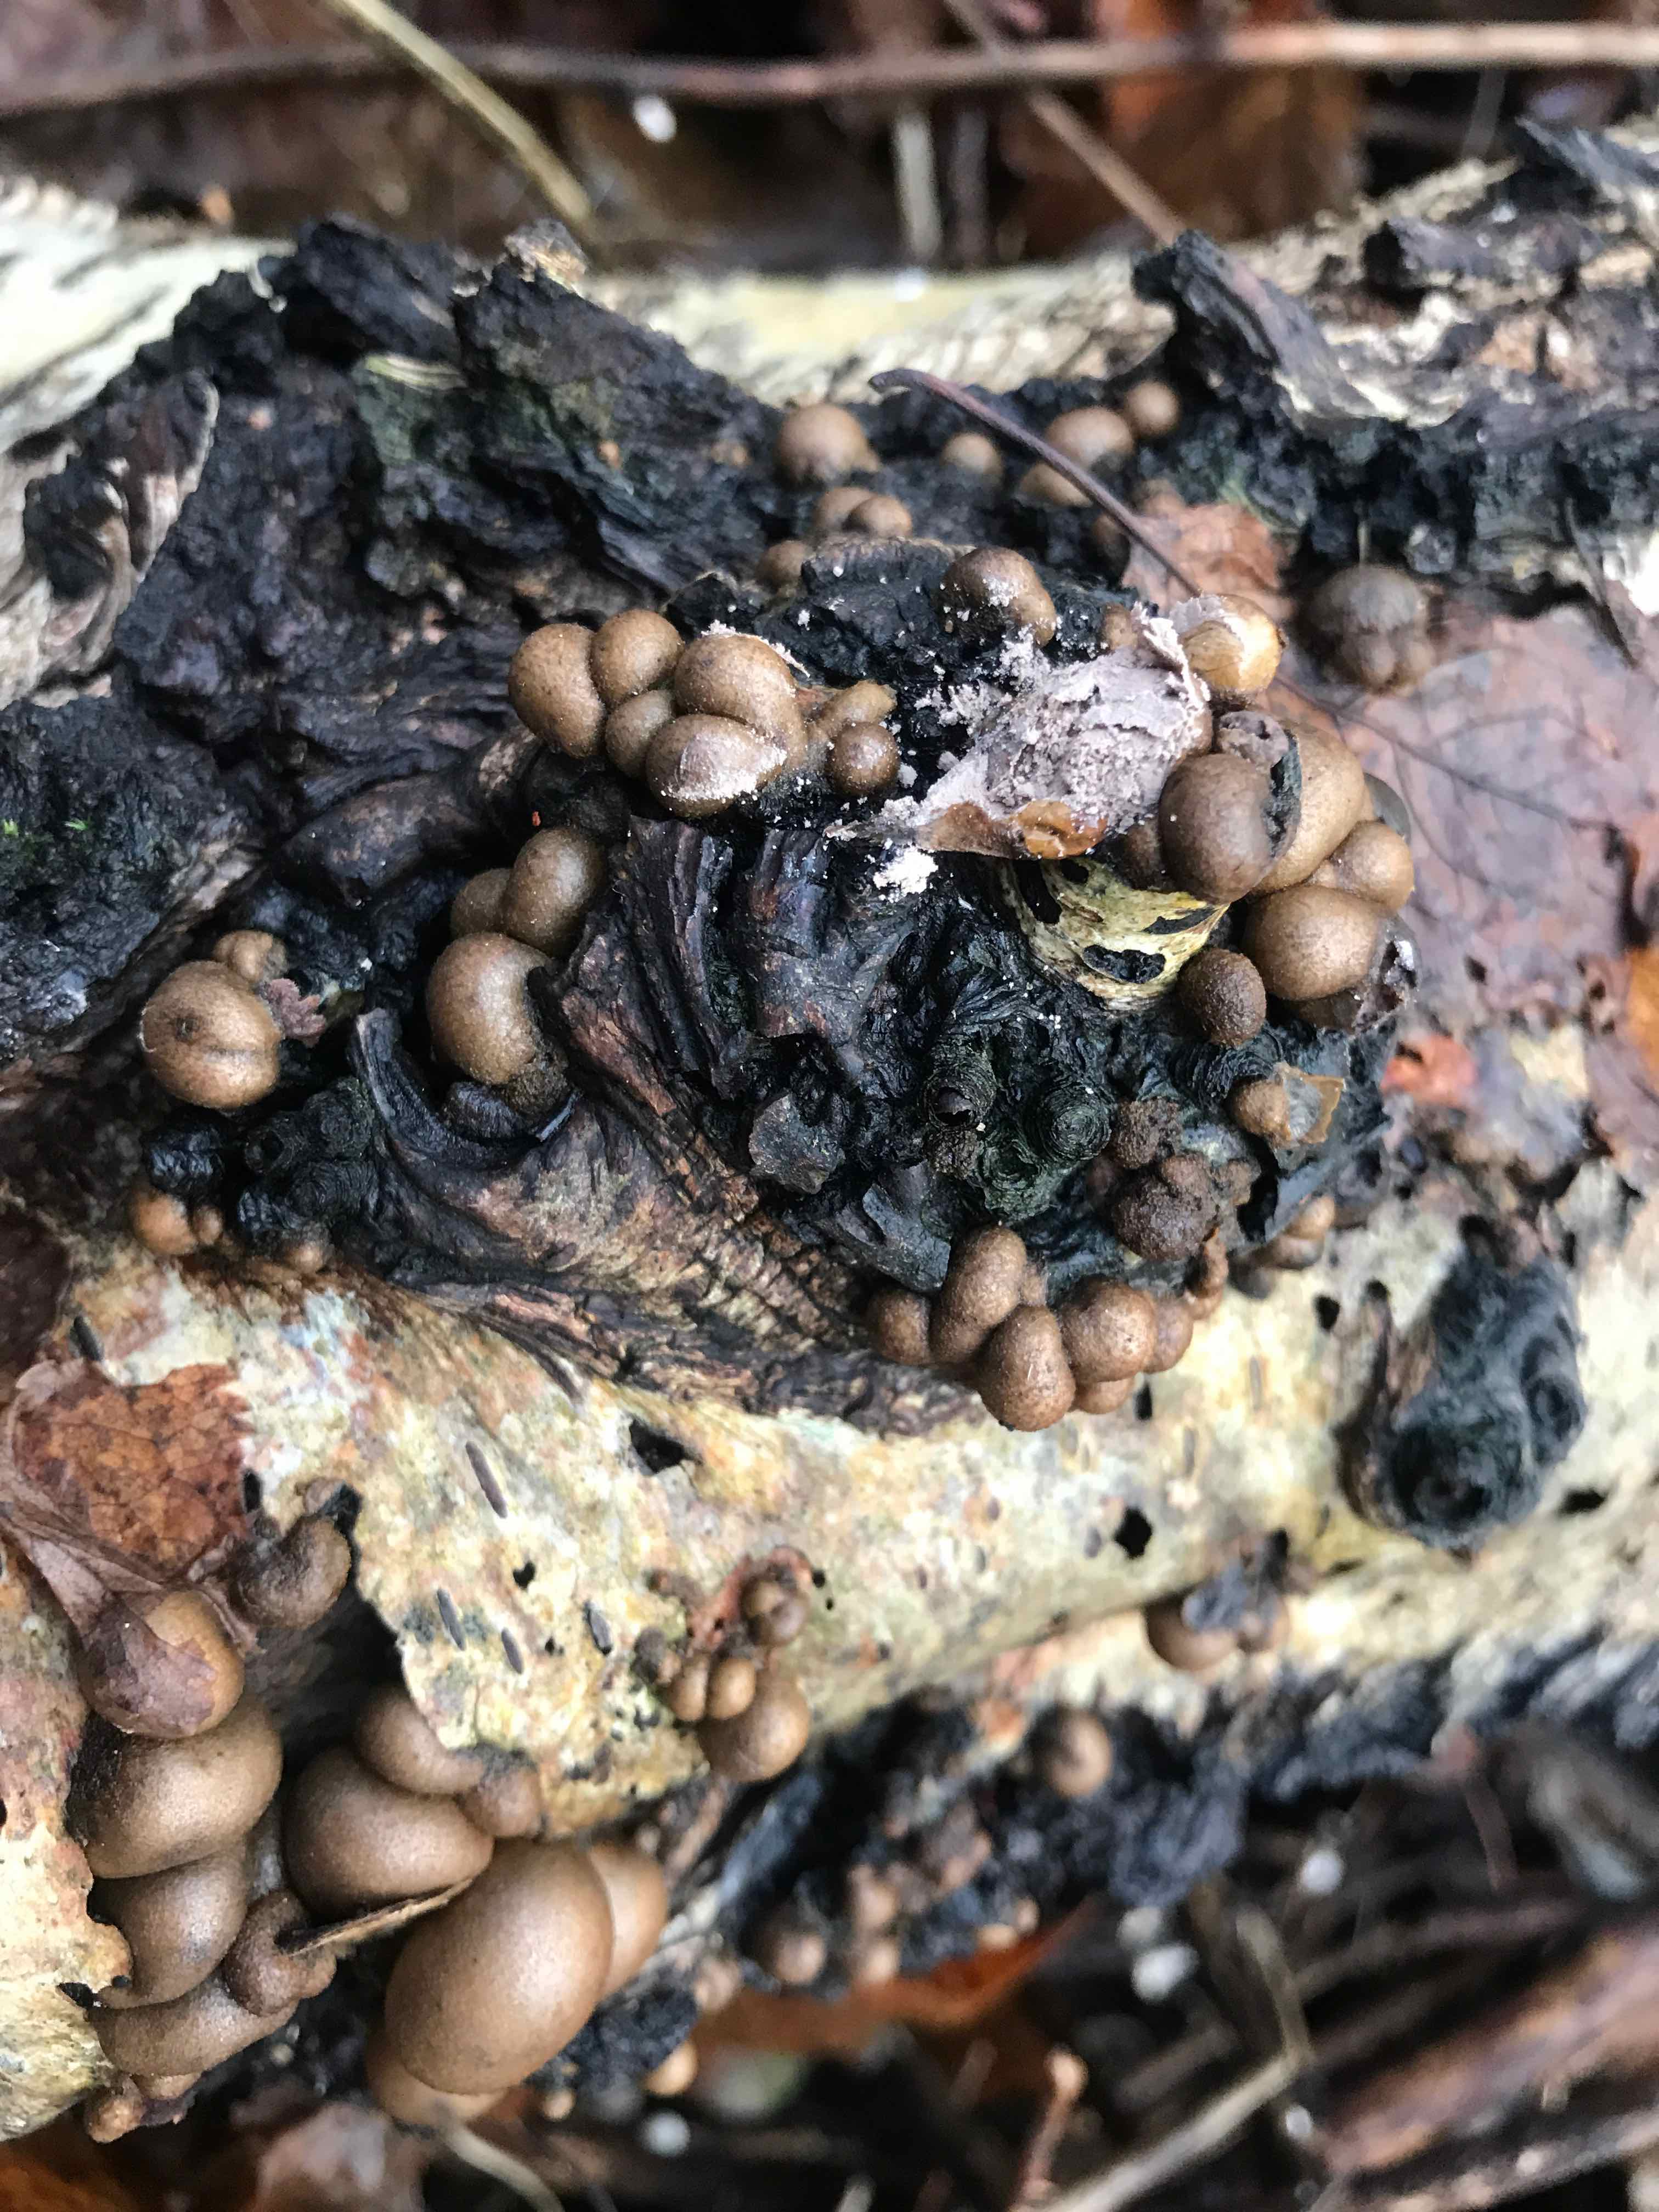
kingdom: Protozoa
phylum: Mycetozoa
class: Myxomycetes
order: Cribrariales
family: Tubiferaceae
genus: Lycogala
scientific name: Lycogala epidendrum
